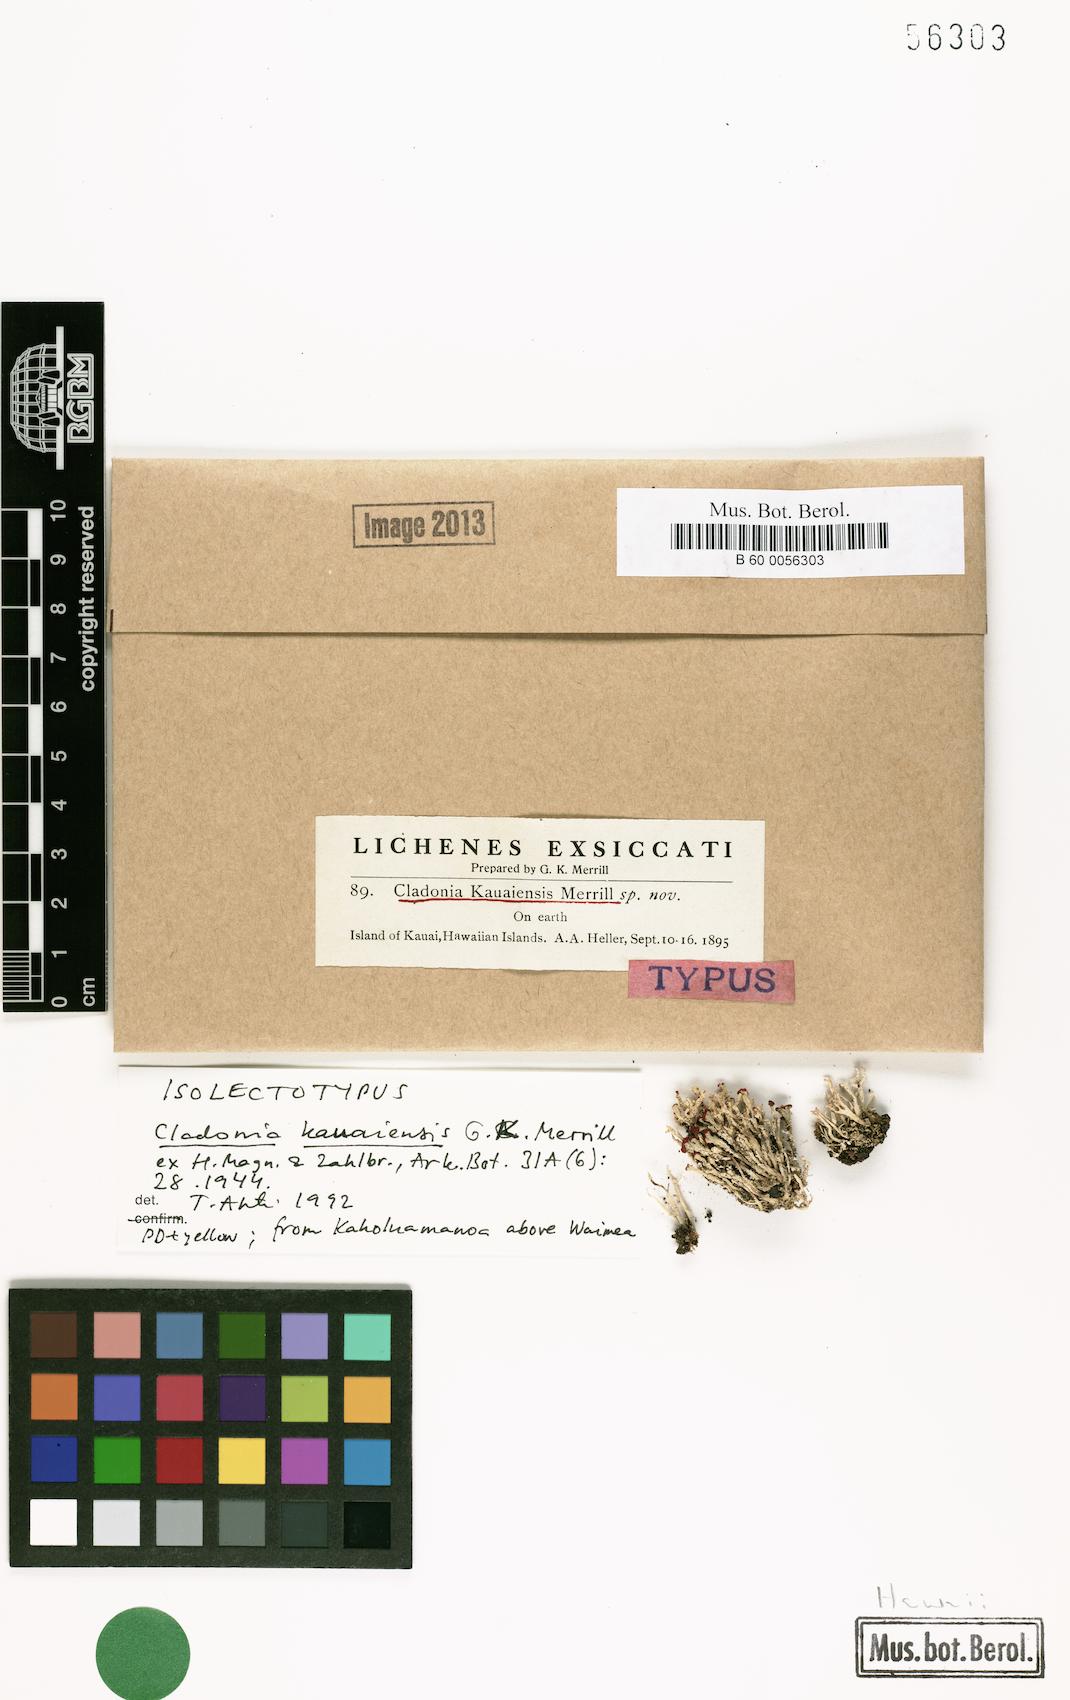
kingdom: Fungi
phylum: Ascomycota
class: Lecanoromycetes
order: Lecanorales
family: Cladoniaceae
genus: Cladonia
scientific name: Cladonia kauaiensis
